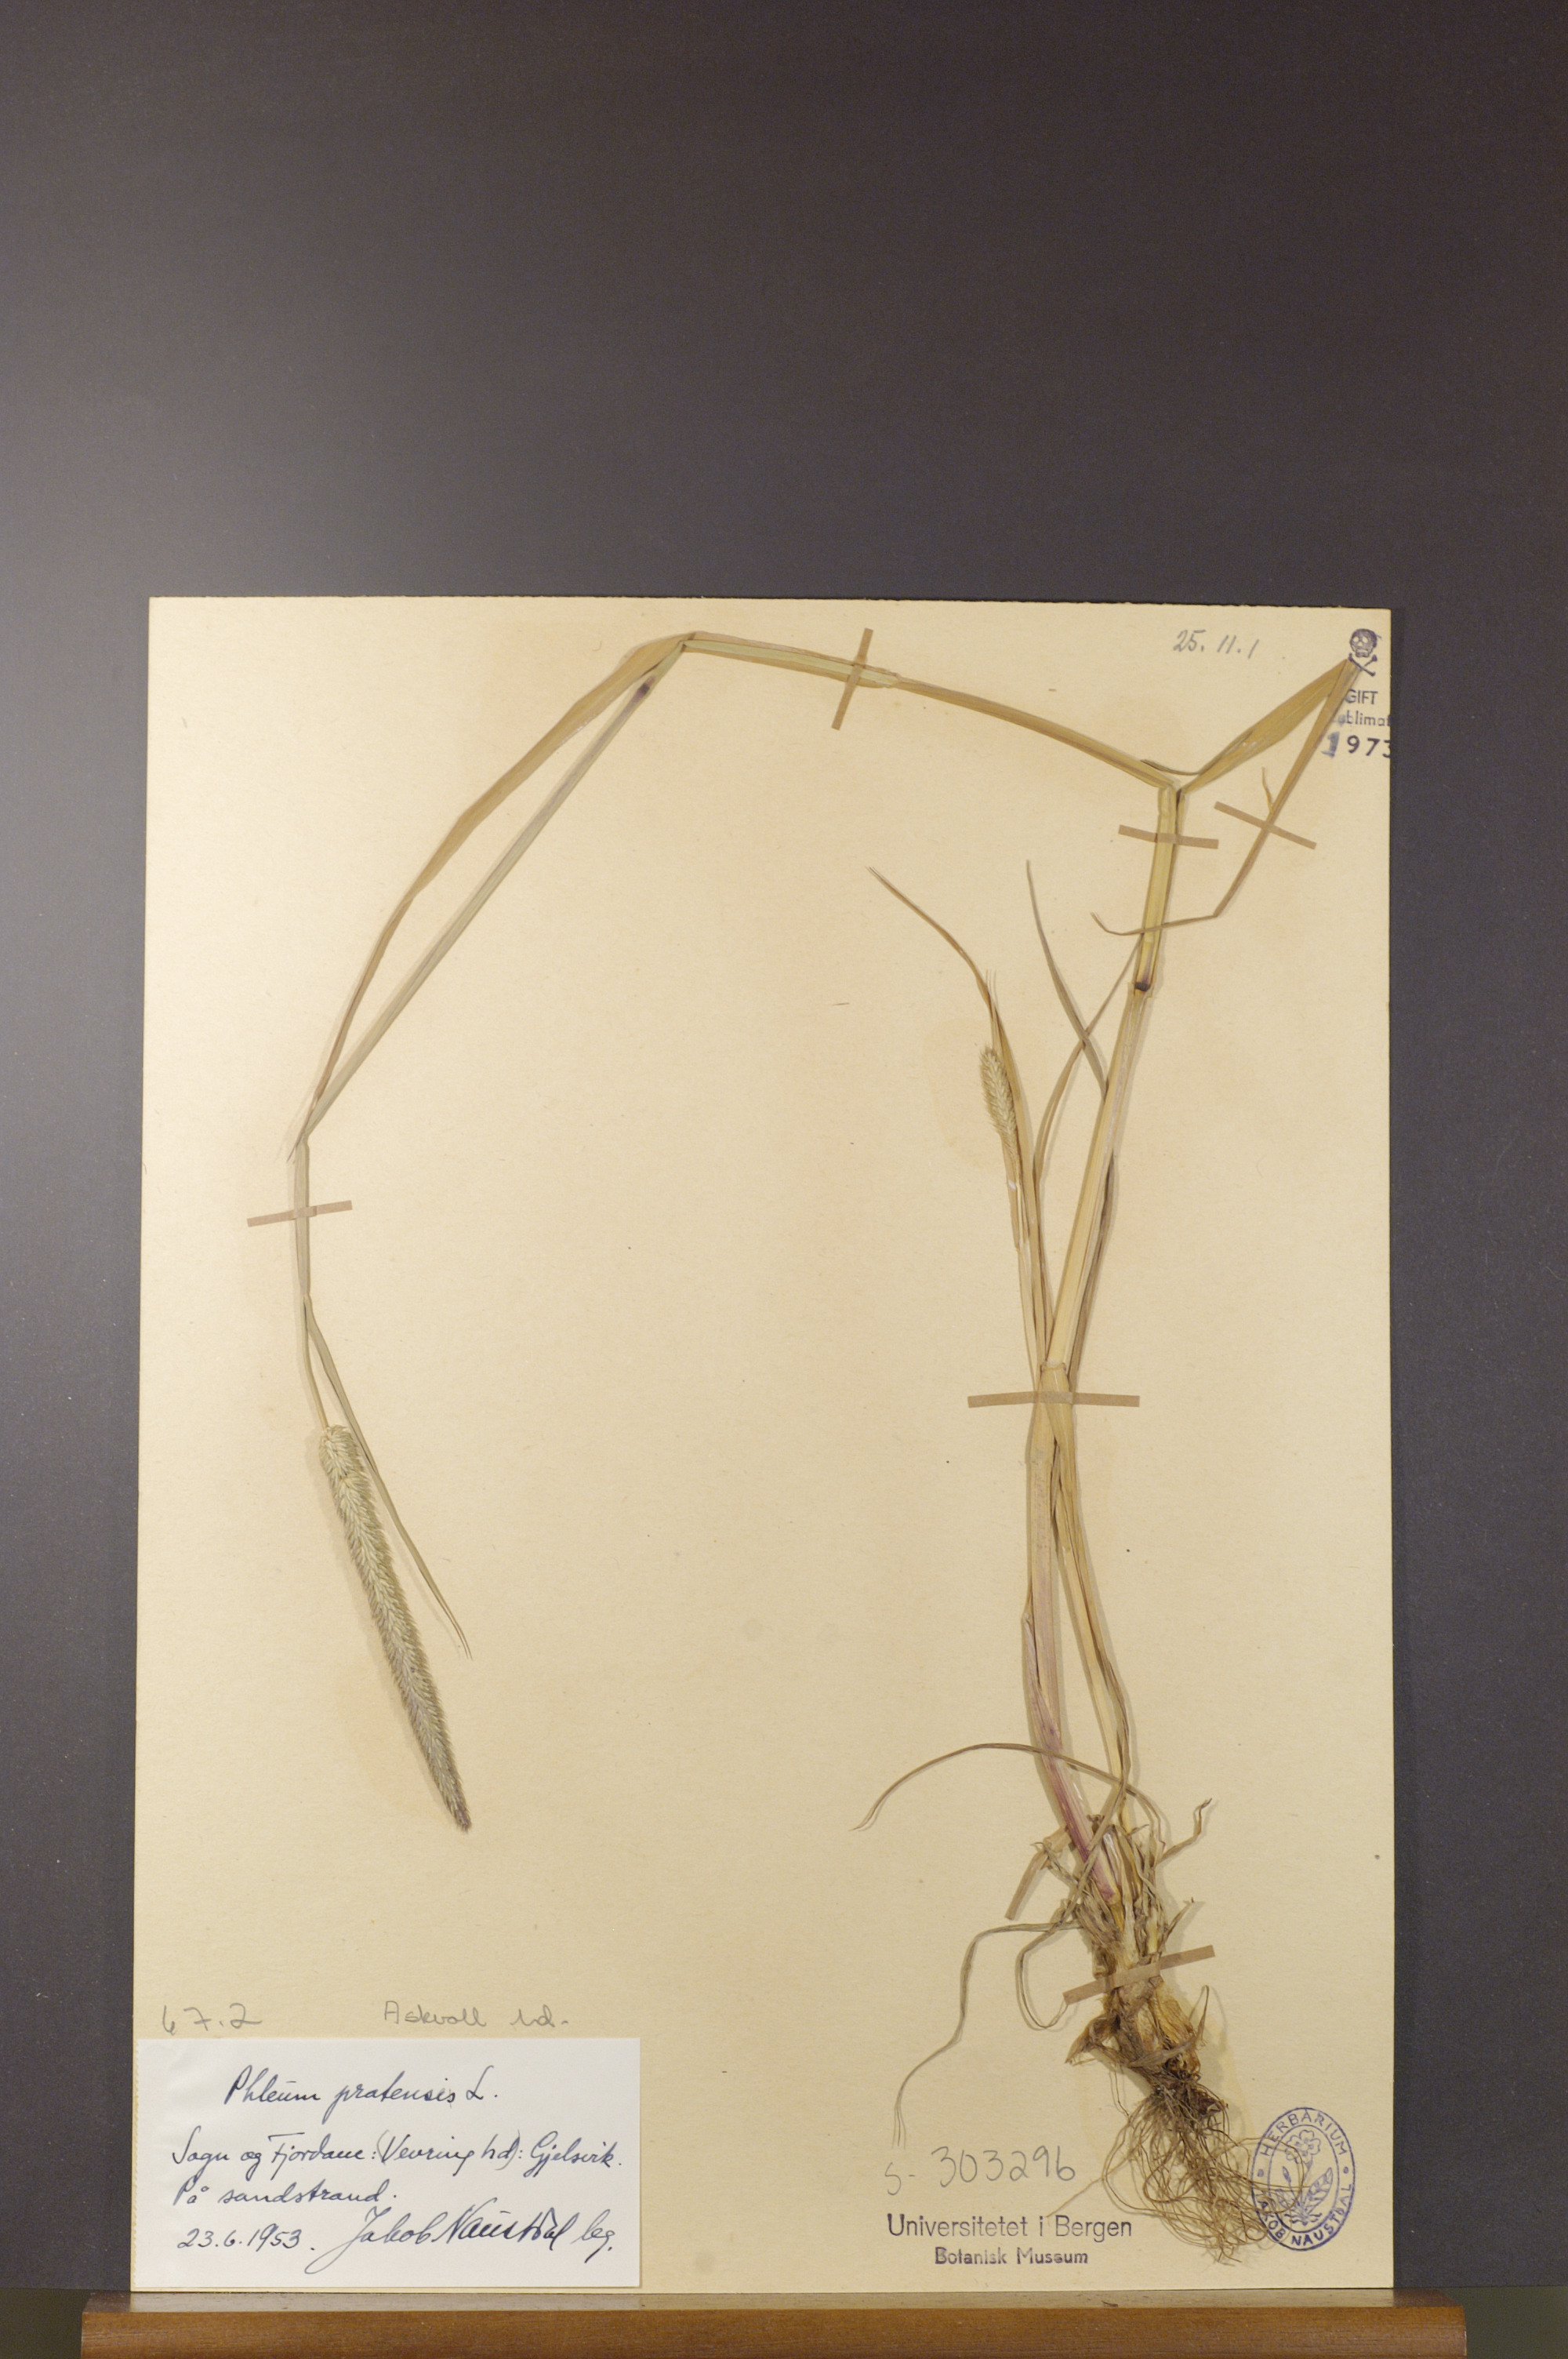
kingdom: Plantae
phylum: Tracheophyta
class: Liliopsida
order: Poales
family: Poaceae
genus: Phleum
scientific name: Phleum pratense
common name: Timothy grass
